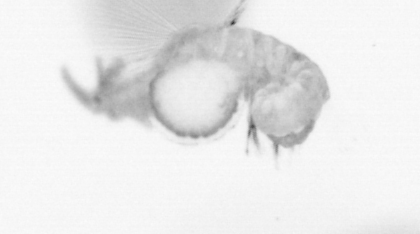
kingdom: Animalia
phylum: Annelida
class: Polychaeta
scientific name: Polychaeta
